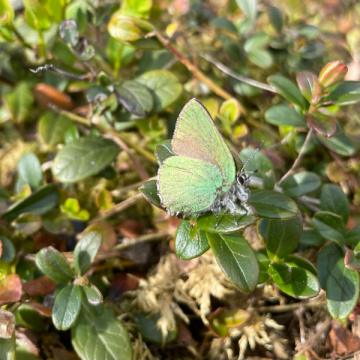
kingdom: Animalia
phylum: Arthropoda
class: Insecta
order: Lepidoptera
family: Lycaenidae
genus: Callophrys
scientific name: Callophrys rubi
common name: Green Hairstreak
